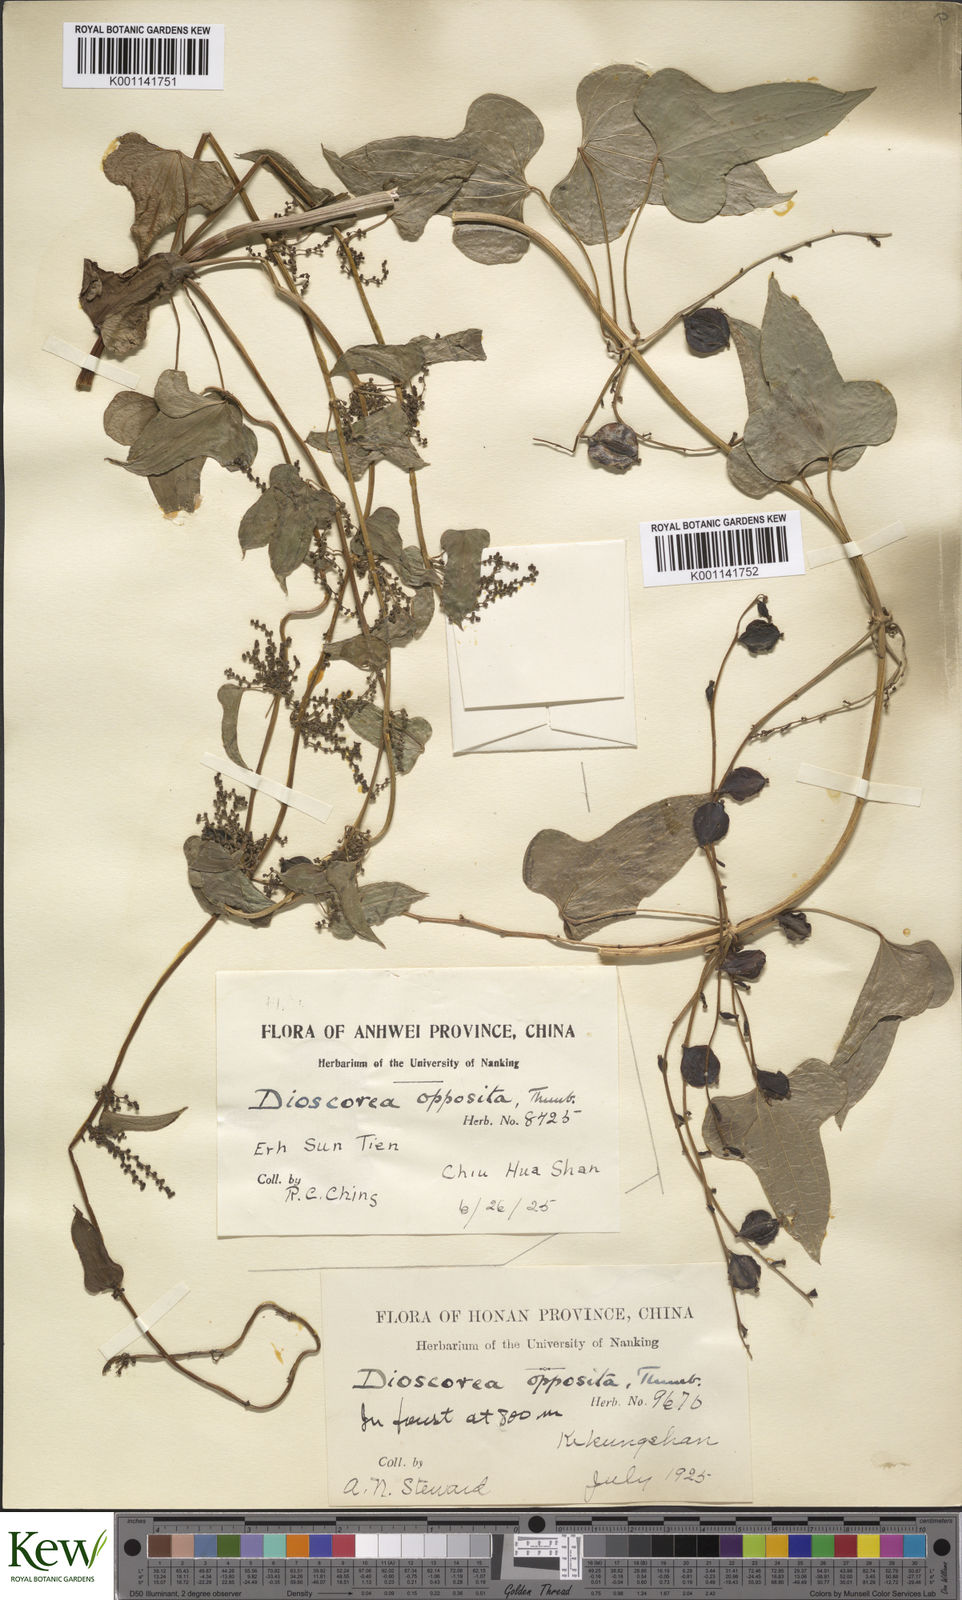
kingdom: Plantae
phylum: Tracheophyta
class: Liliopsida
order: Dioscoreales
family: Dioscoreaceae
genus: Dioscorea
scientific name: Dioscorea oppositifolia
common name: Chinese yam
